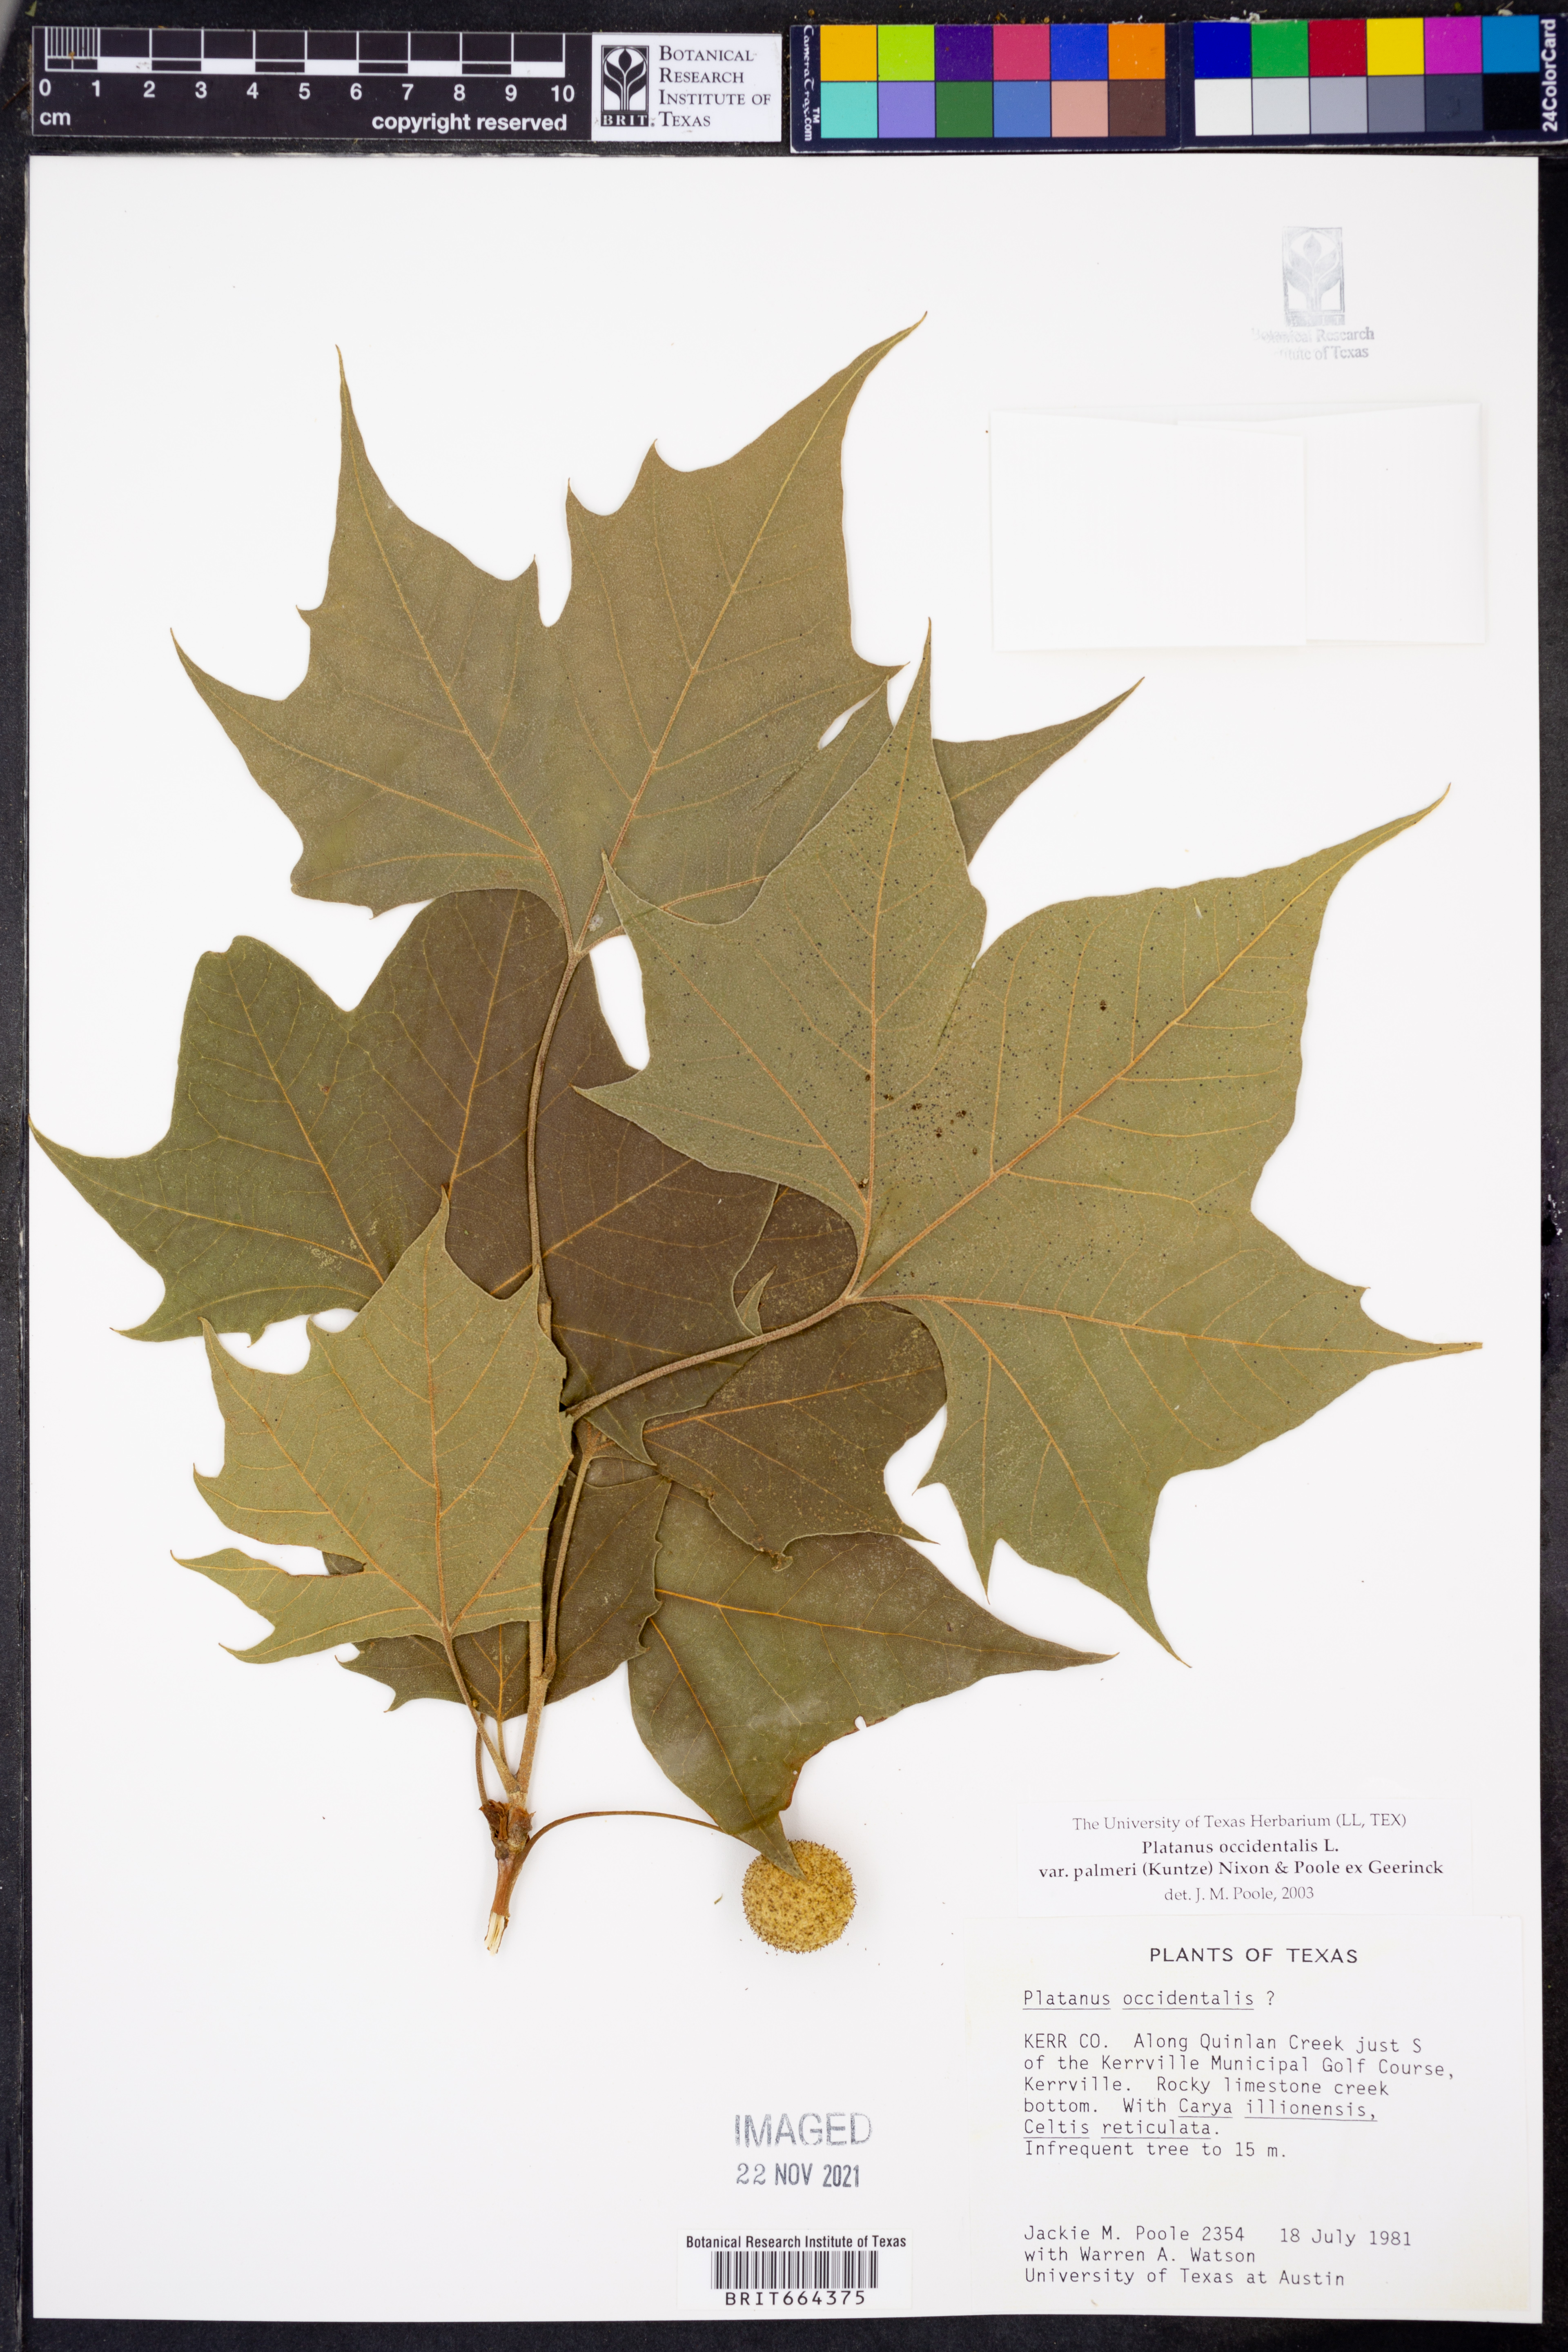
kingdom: Plantae
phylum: Tracheophyta
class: Magnoliopsida
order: Proteales
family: Platanaceae
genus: Platanus
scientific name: Platanus occidentalis
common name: American sycamore
